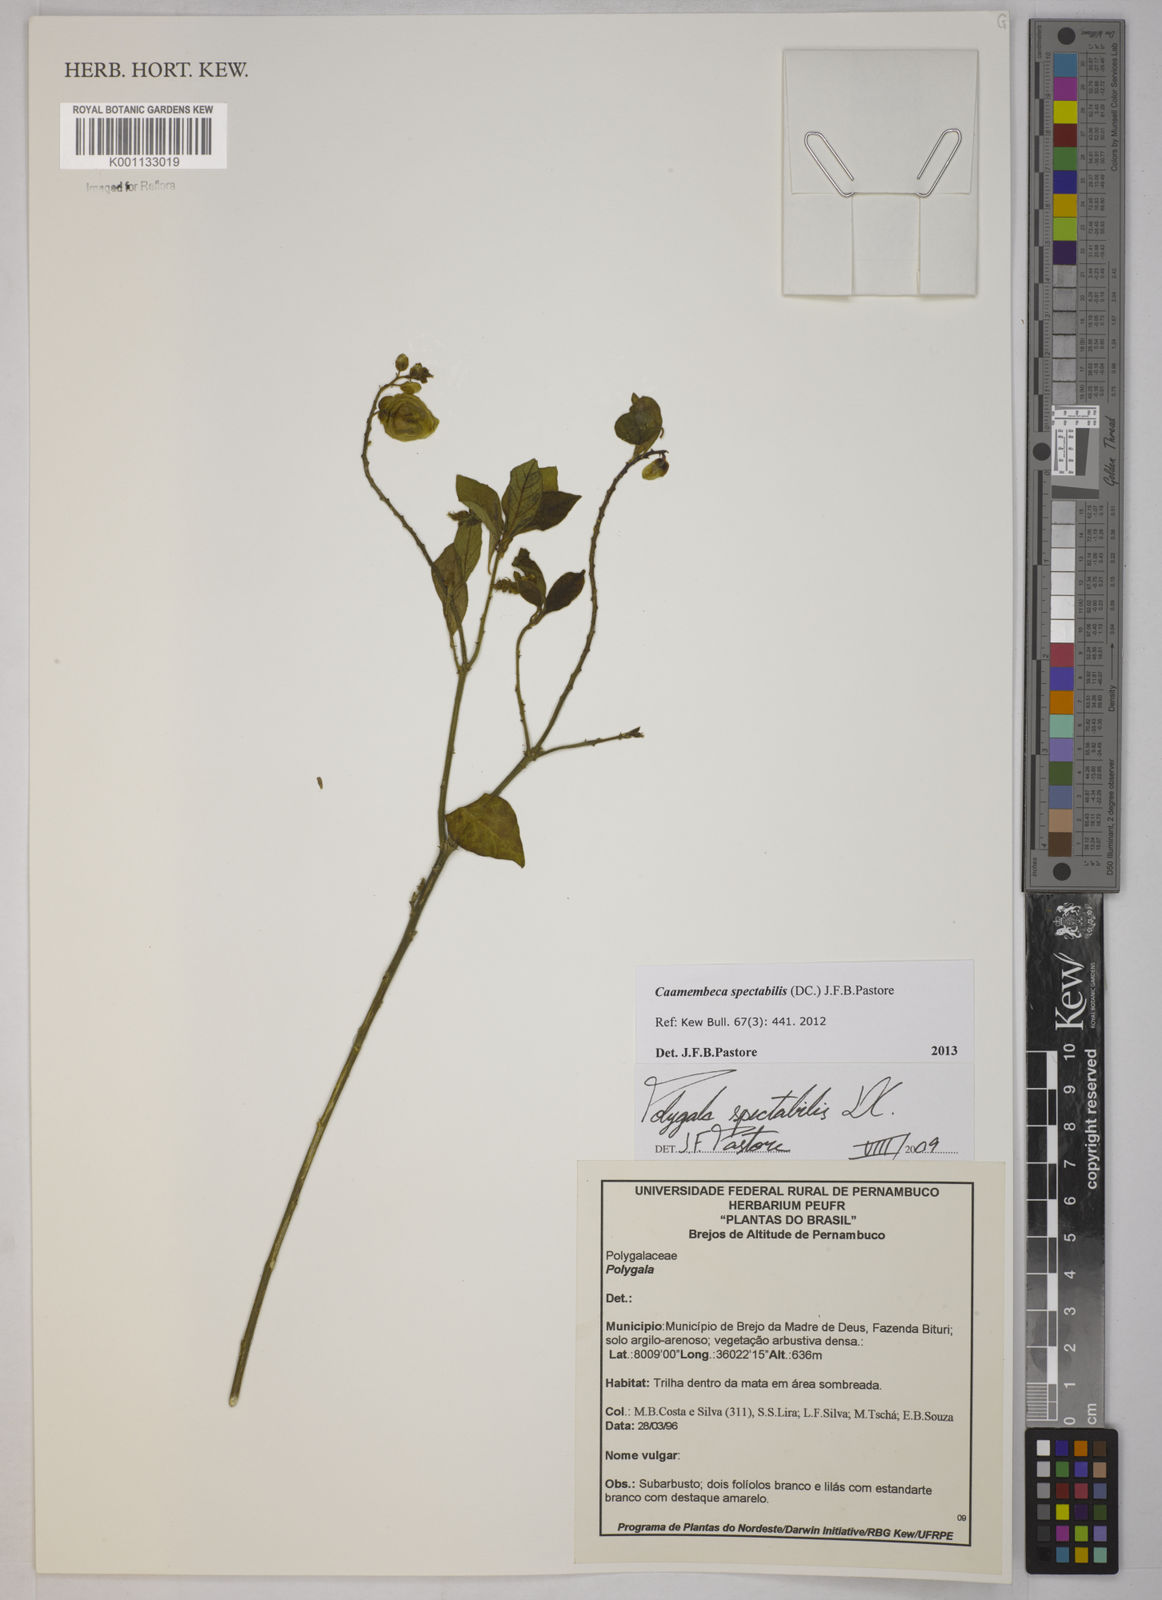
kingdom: Plantae
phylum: Tracheophyta
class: Magnoliopsida
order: Fabales
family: Polygalaceae
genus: Polygala
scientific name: Polygala
